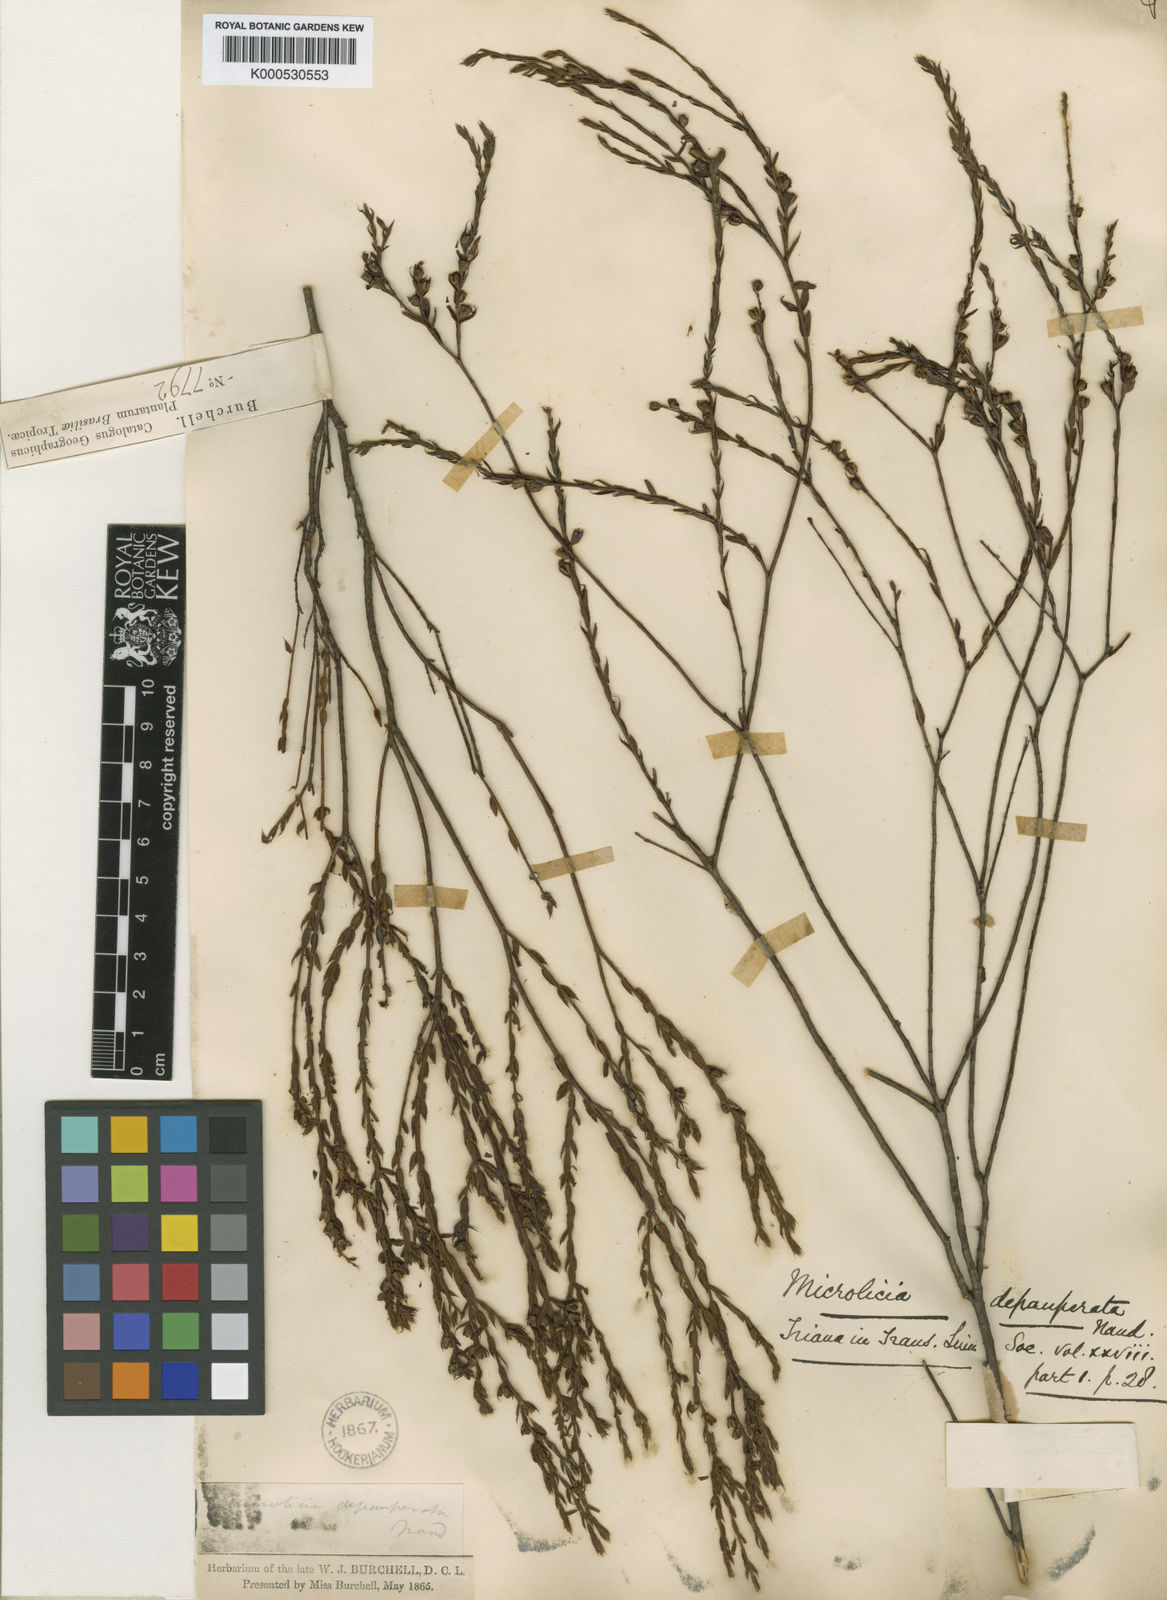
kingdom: Plantae
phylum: Tracheophyta
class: Magnoliopsida
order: Myrtales
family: Melastomataceae
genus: Microlicia
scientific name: Microlicia insignis
